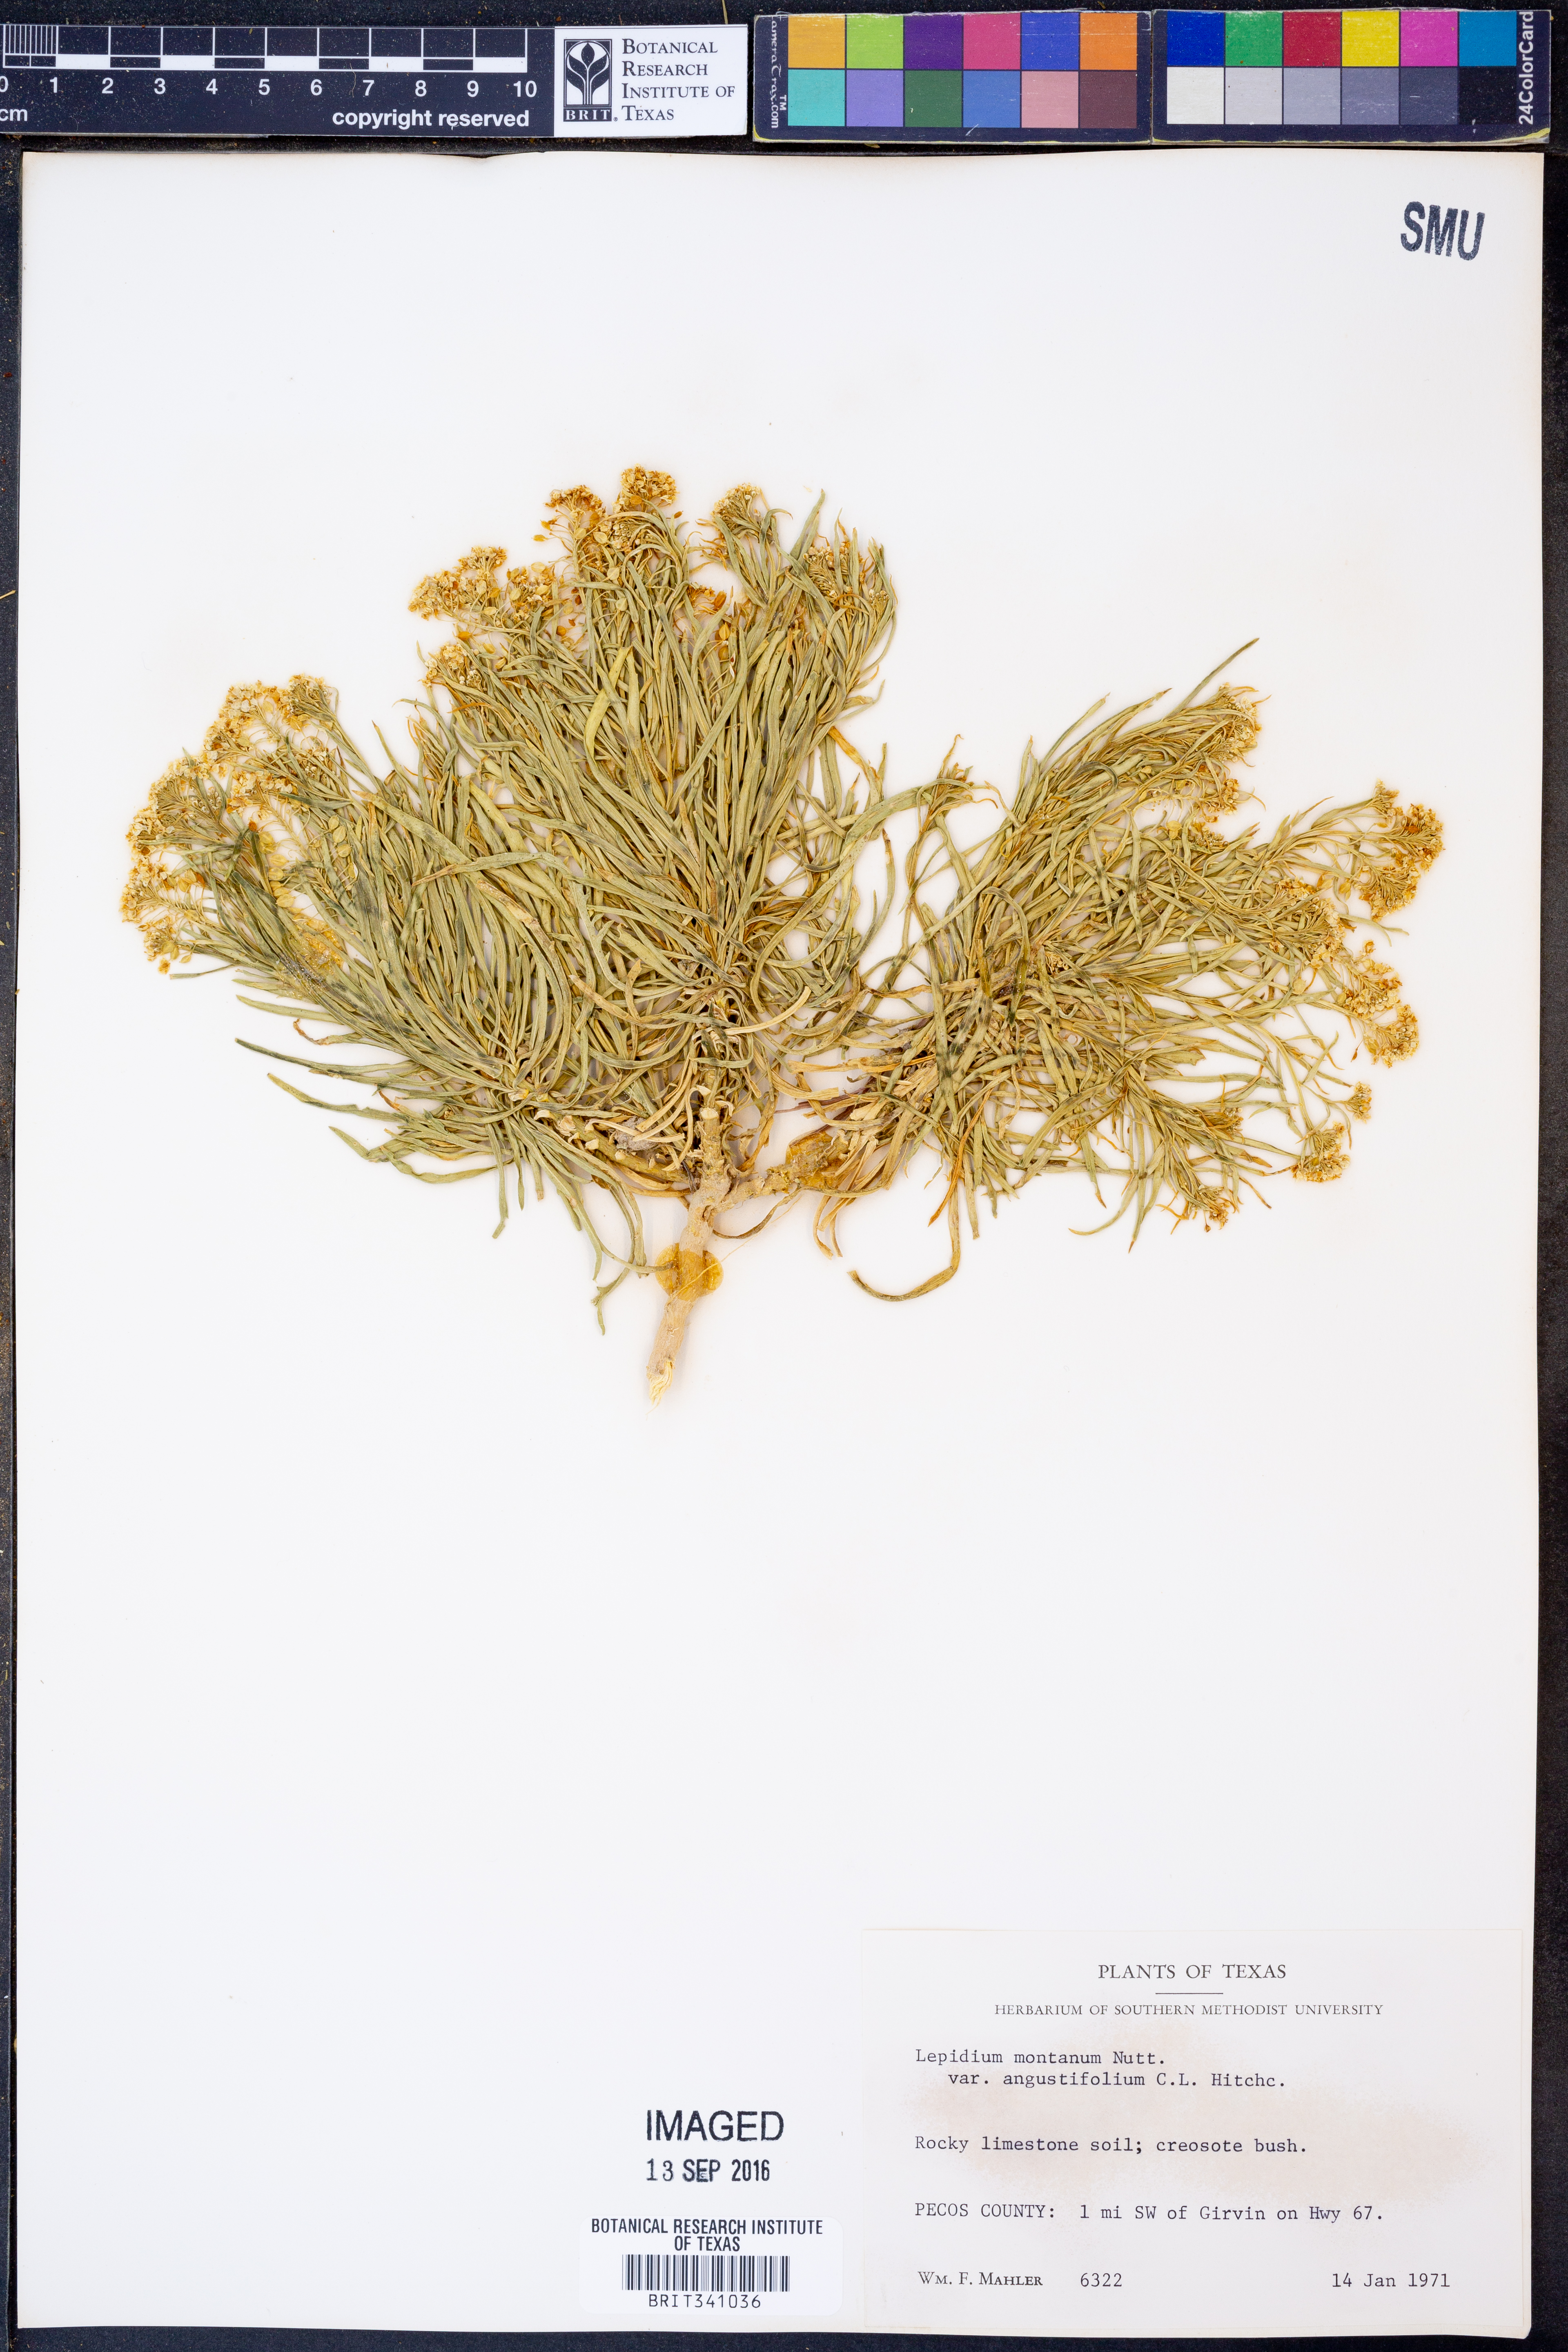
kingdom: Plantae
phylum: Tracheophyta
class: Magnoliopsida
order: Brassicales
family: Brassicaceae
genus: Lepidium
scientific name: Lepidium alyssoides
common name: Mesa pepperweed
